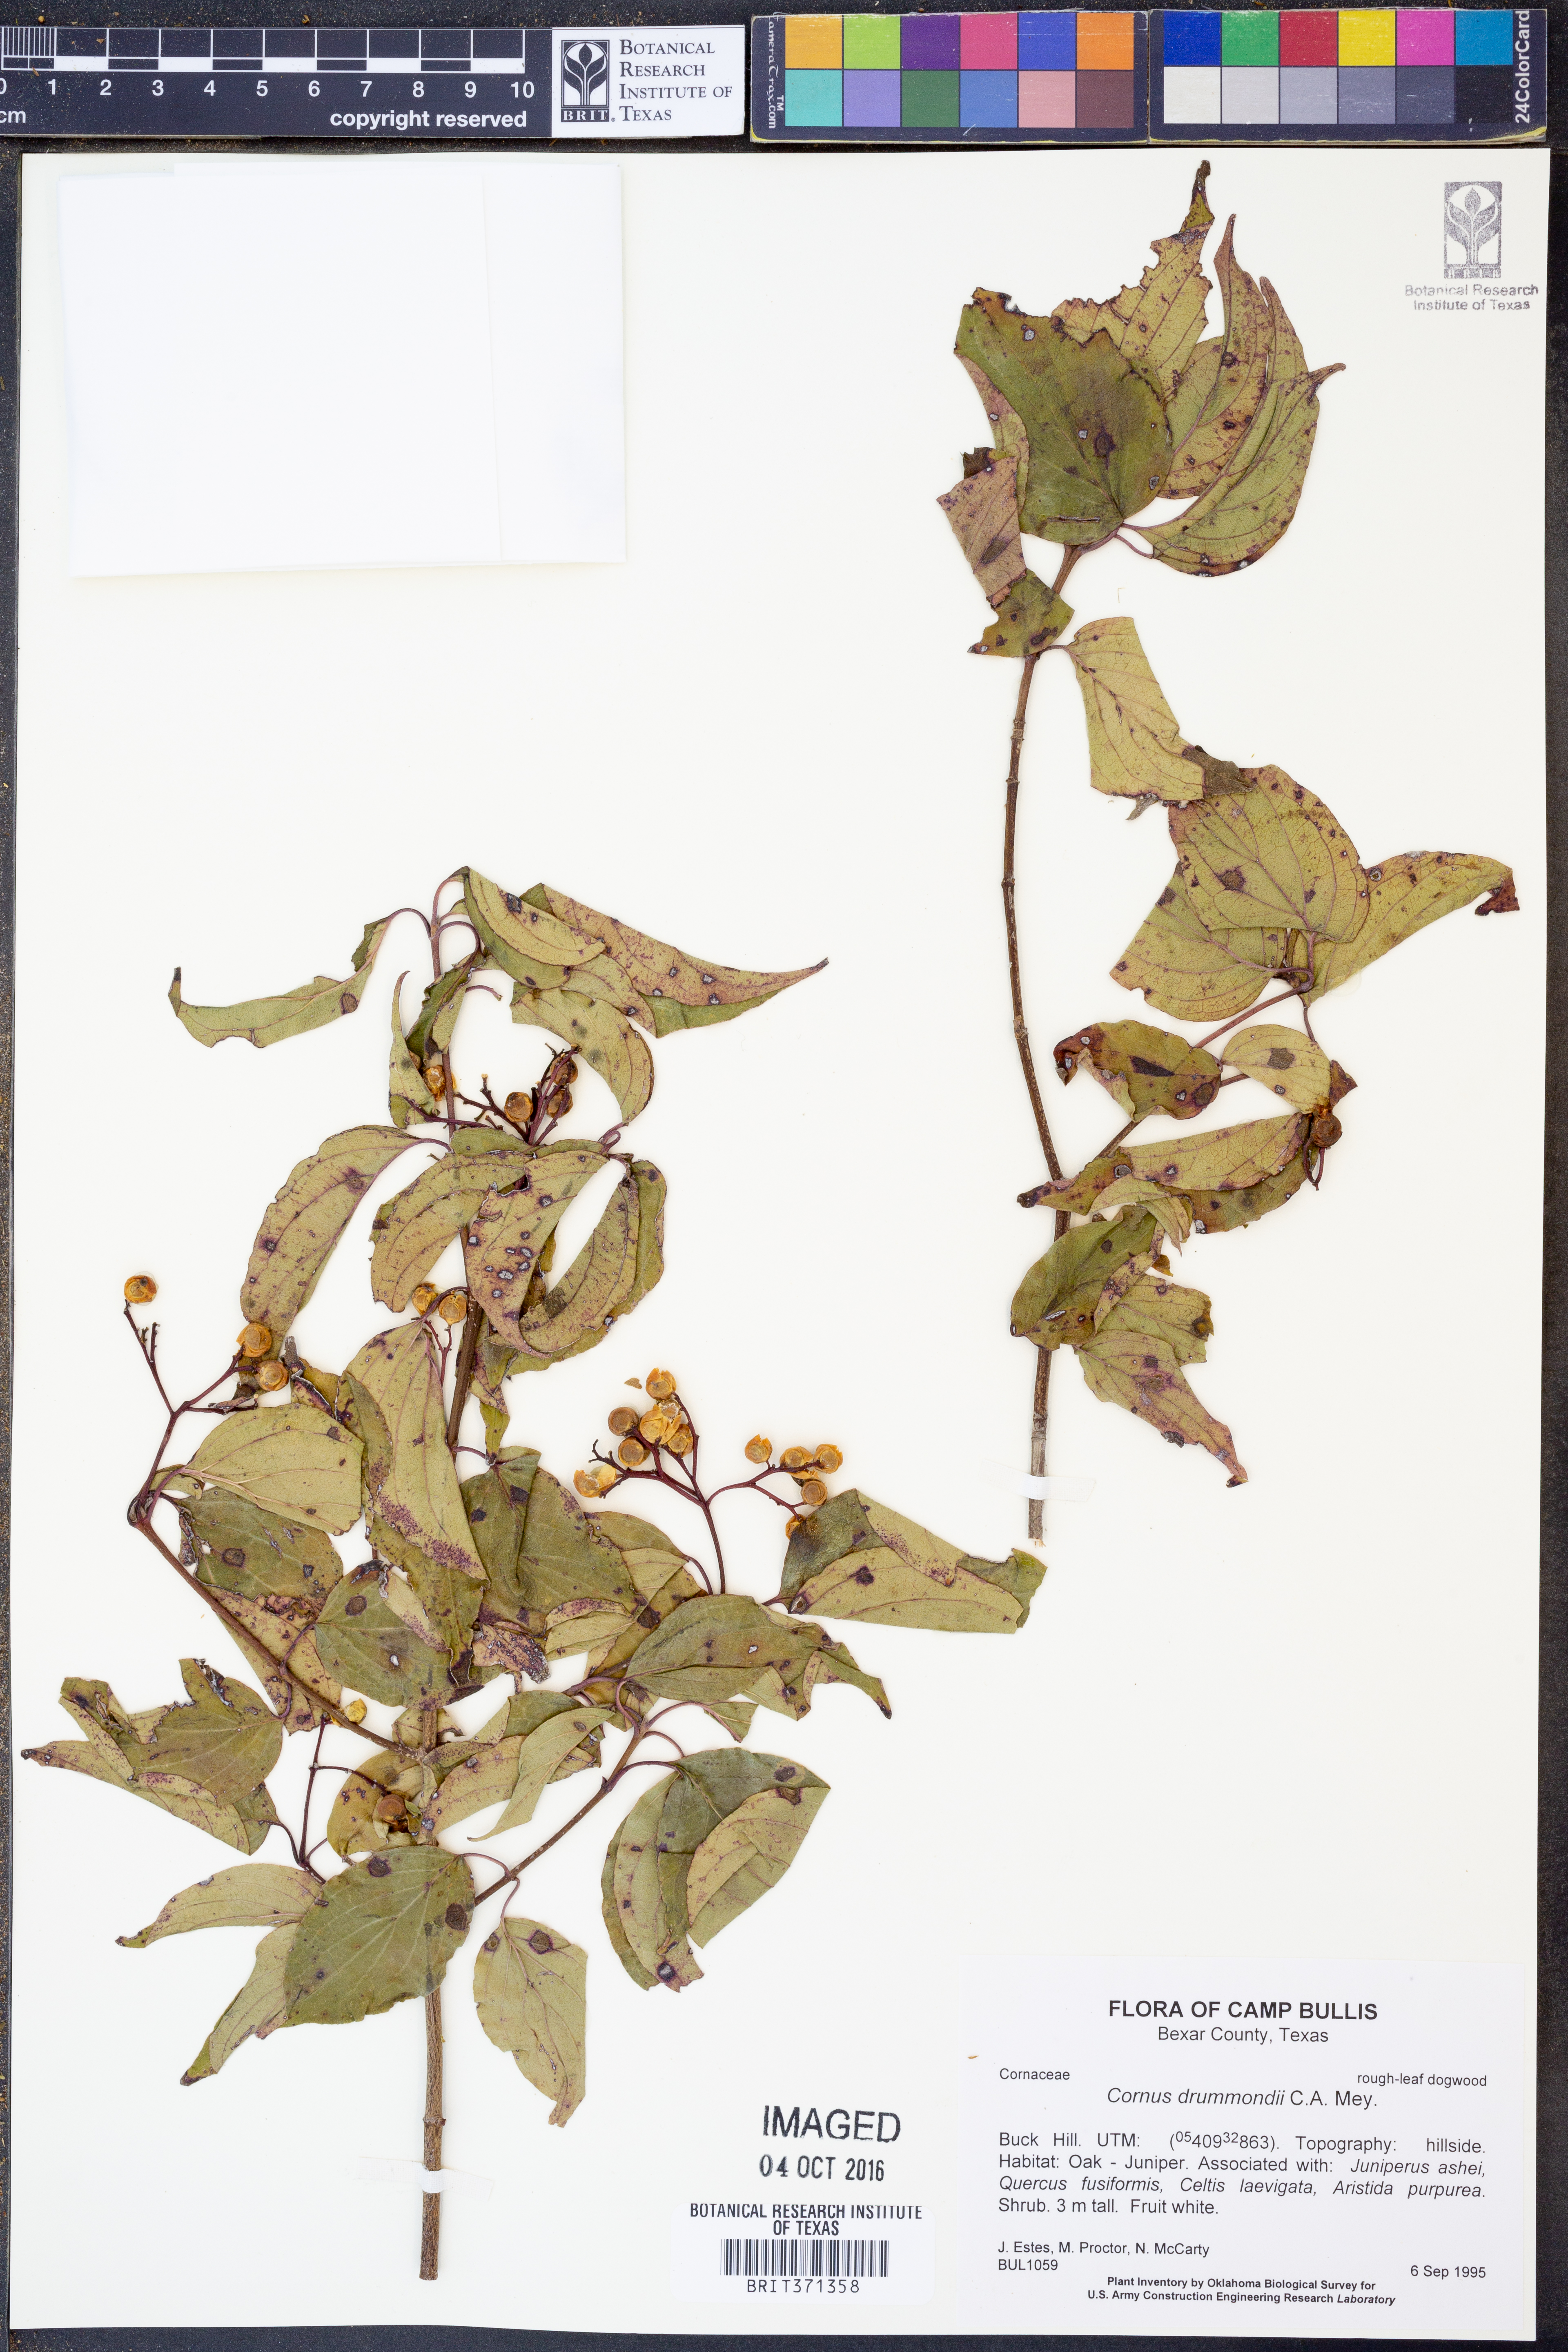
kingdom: Plantae
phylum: Tracheophyta
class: Magnoliopsida
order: Cornales
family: Cornaceae
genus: Cornus
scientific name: Cornus drummondii
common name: Rough-leaf dogwood
